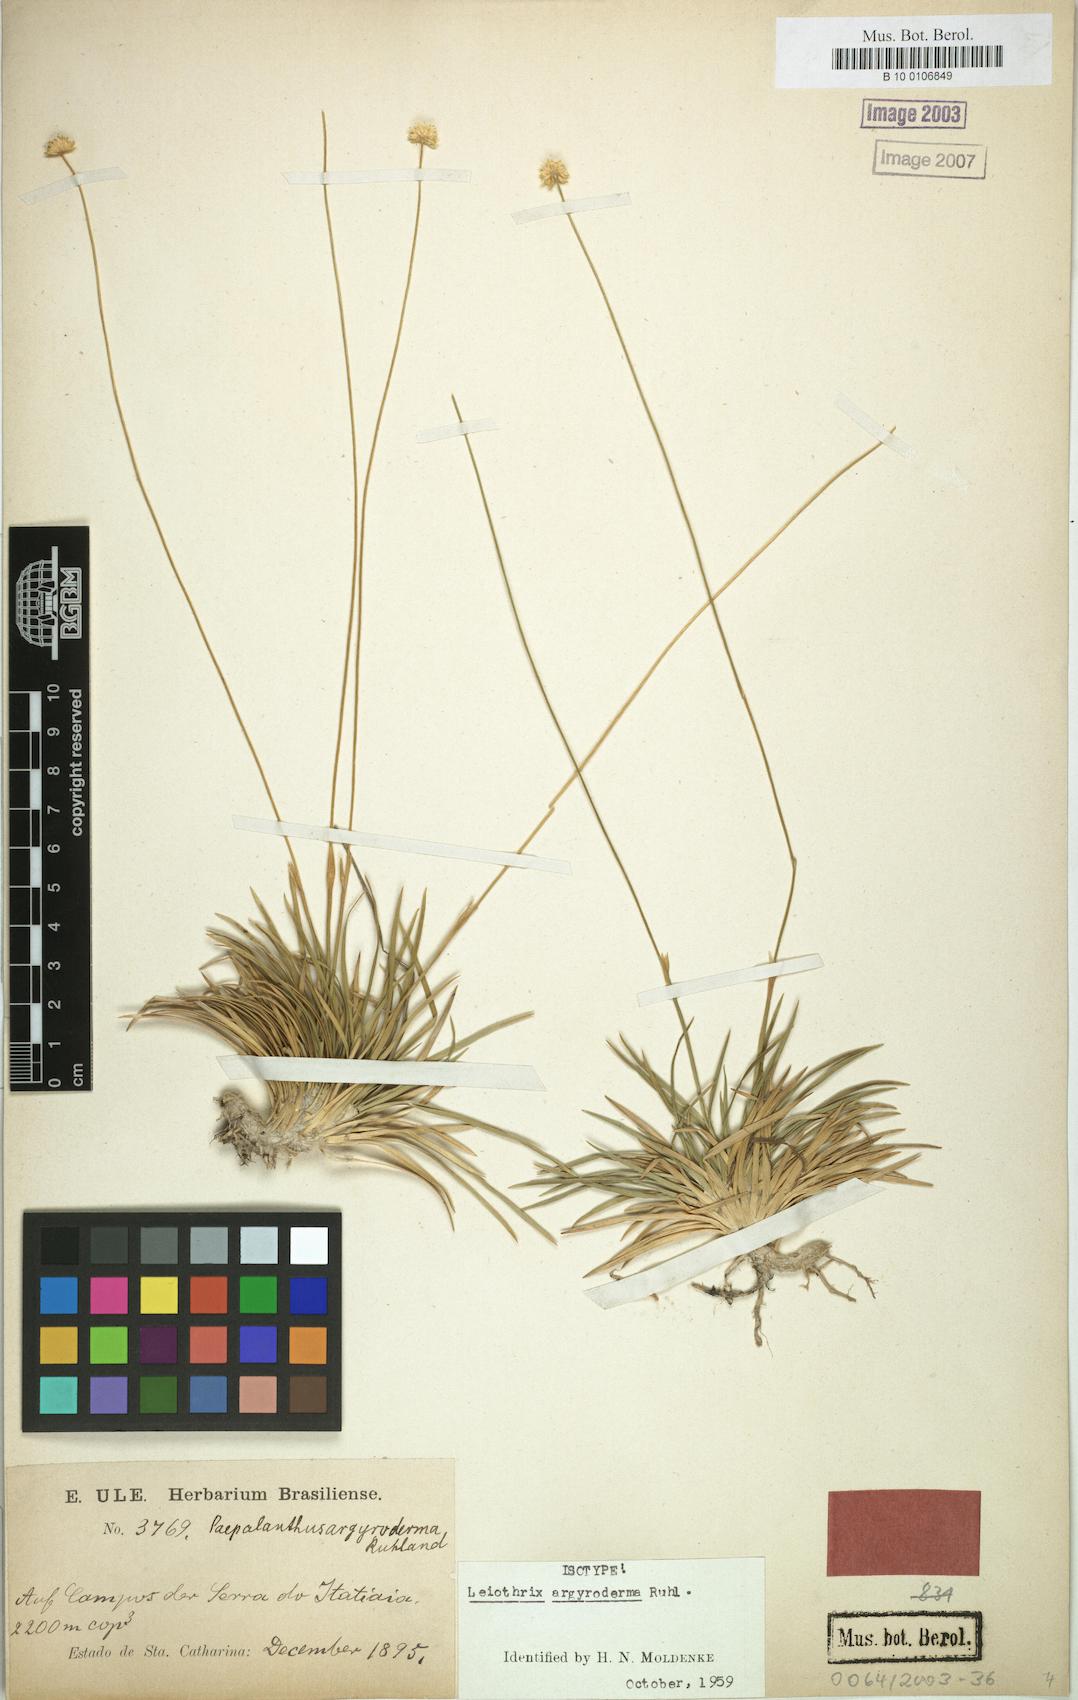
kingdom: Plantae
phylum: Tracheophyta
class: Liliopsida
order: Poales
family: Eriocaulaceae
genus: Leiothrix
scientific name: Leiothrix argyroderma
